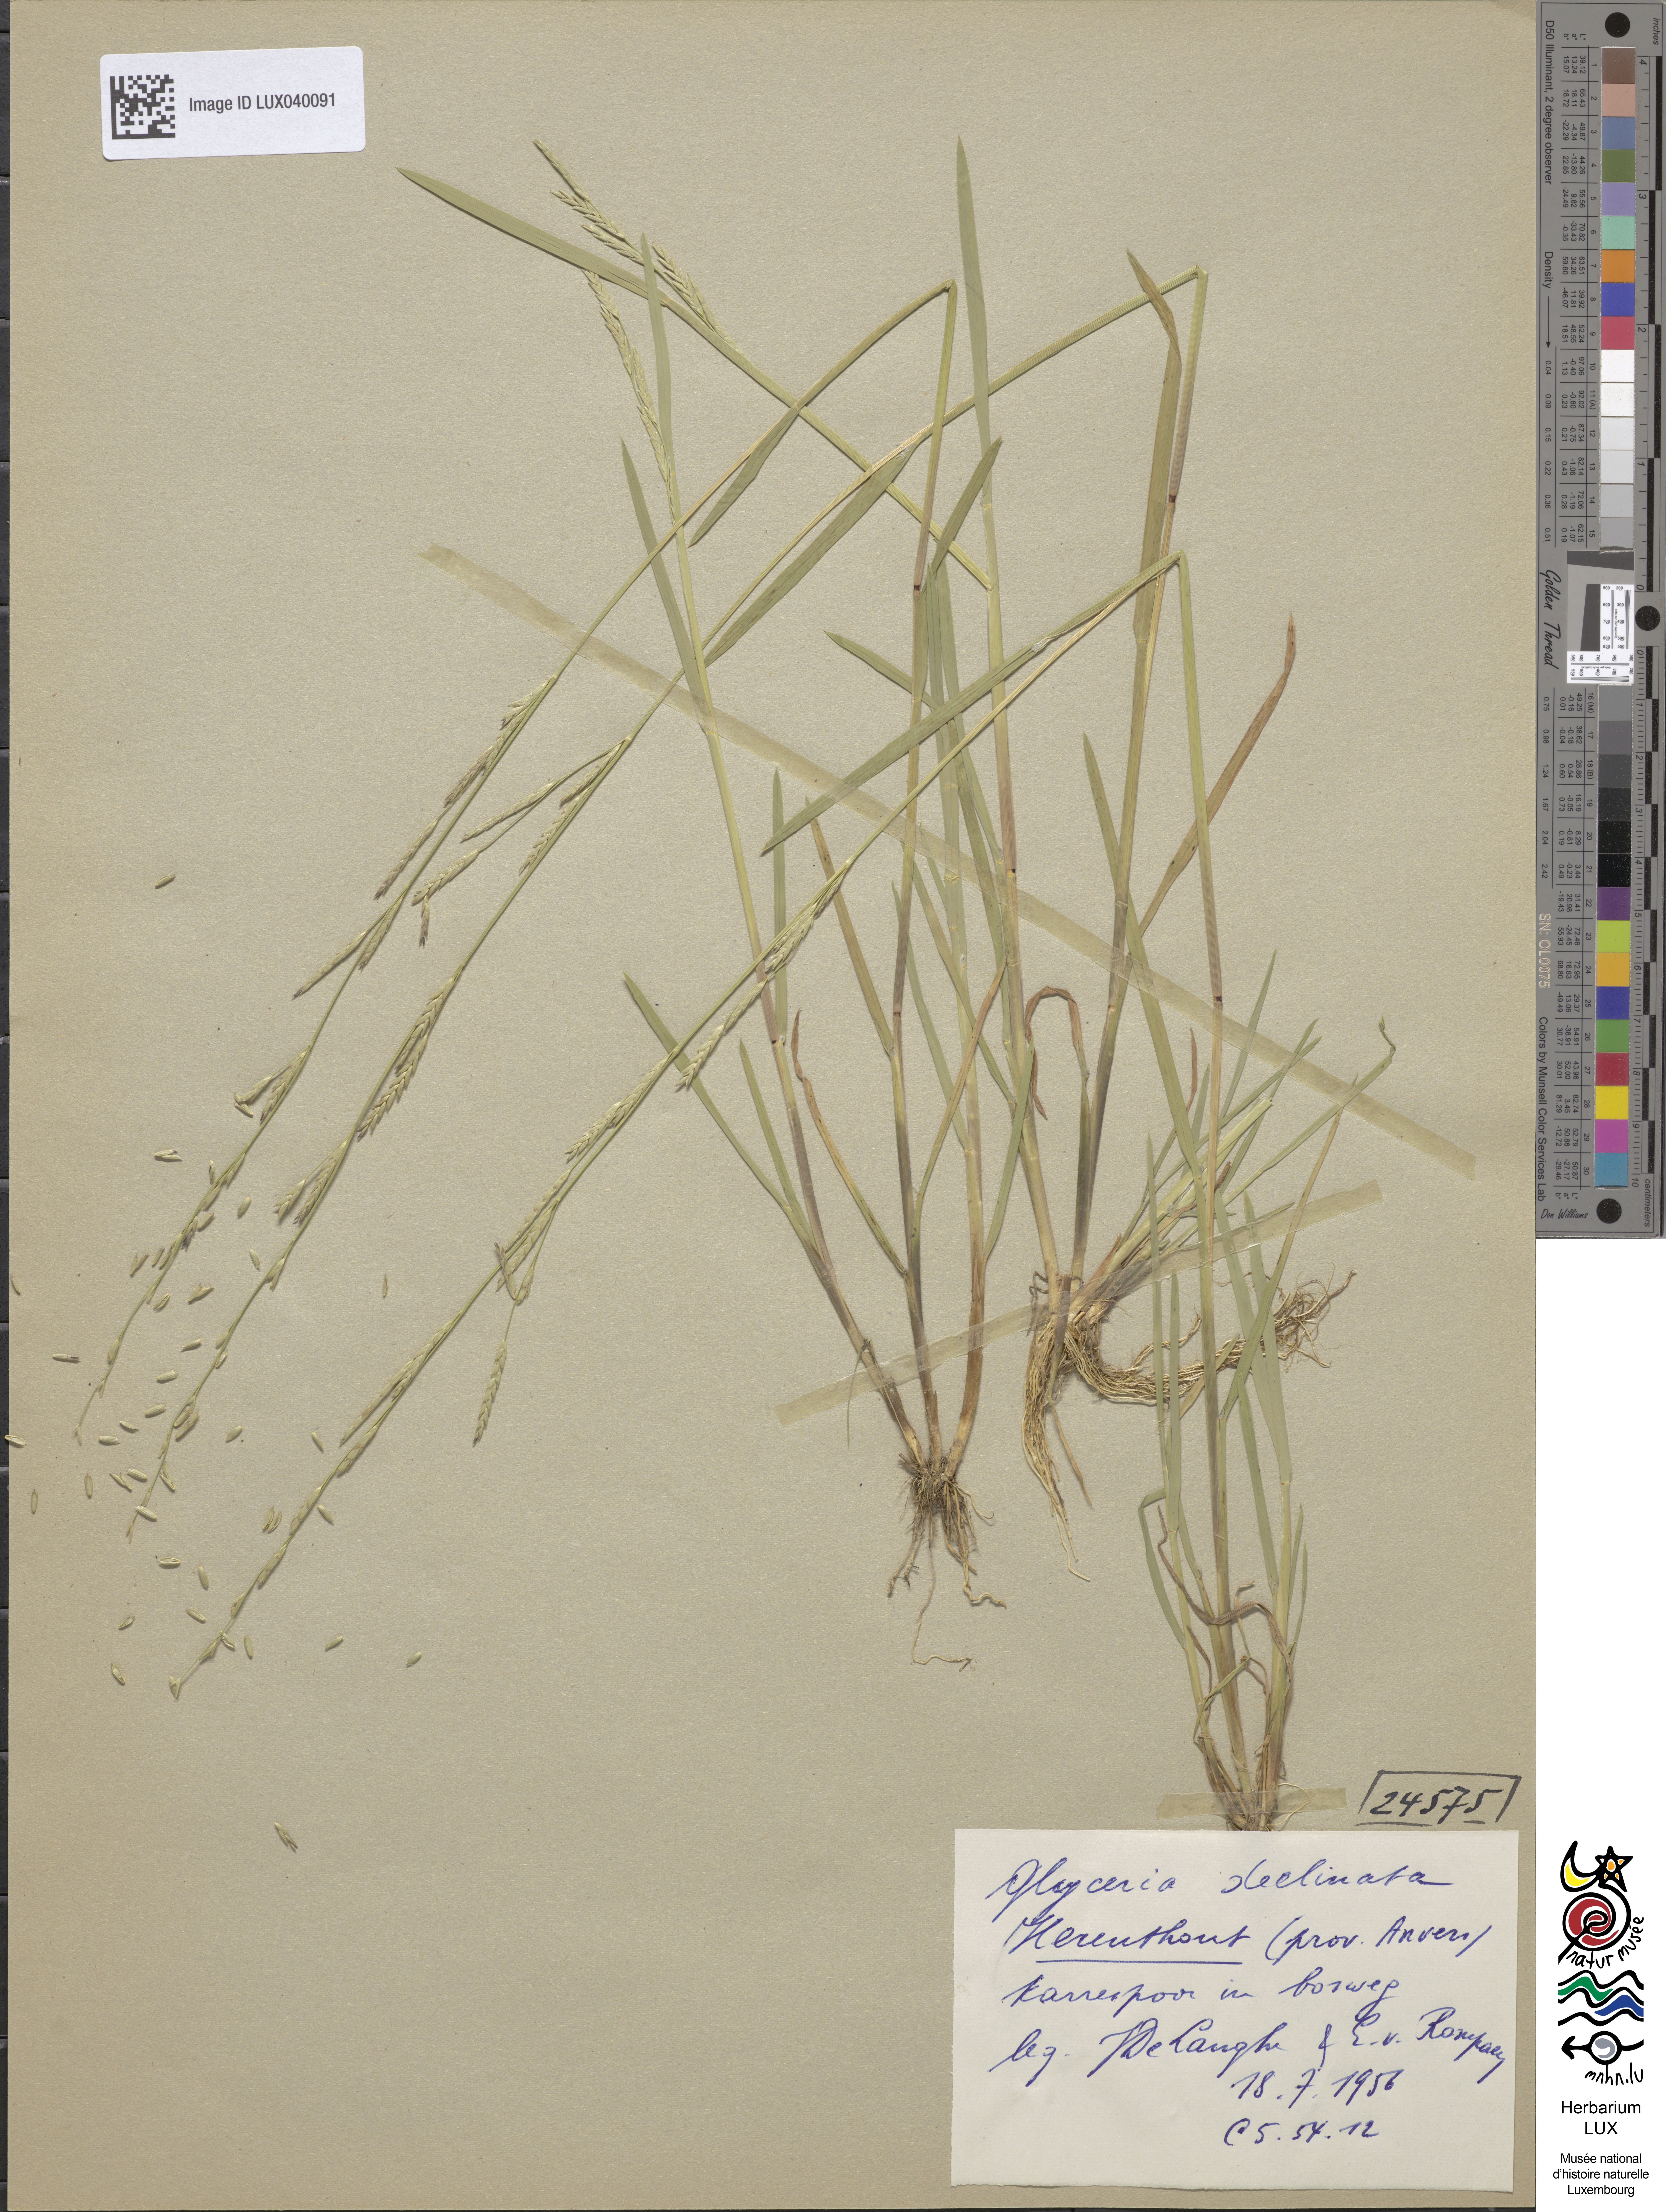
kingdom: Plantae
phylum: Tracheophyta
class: Liliopsida
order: Poales
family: Poaceae
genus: Glyceria
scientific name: Glyceria declinata
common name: Small sweet-grass
